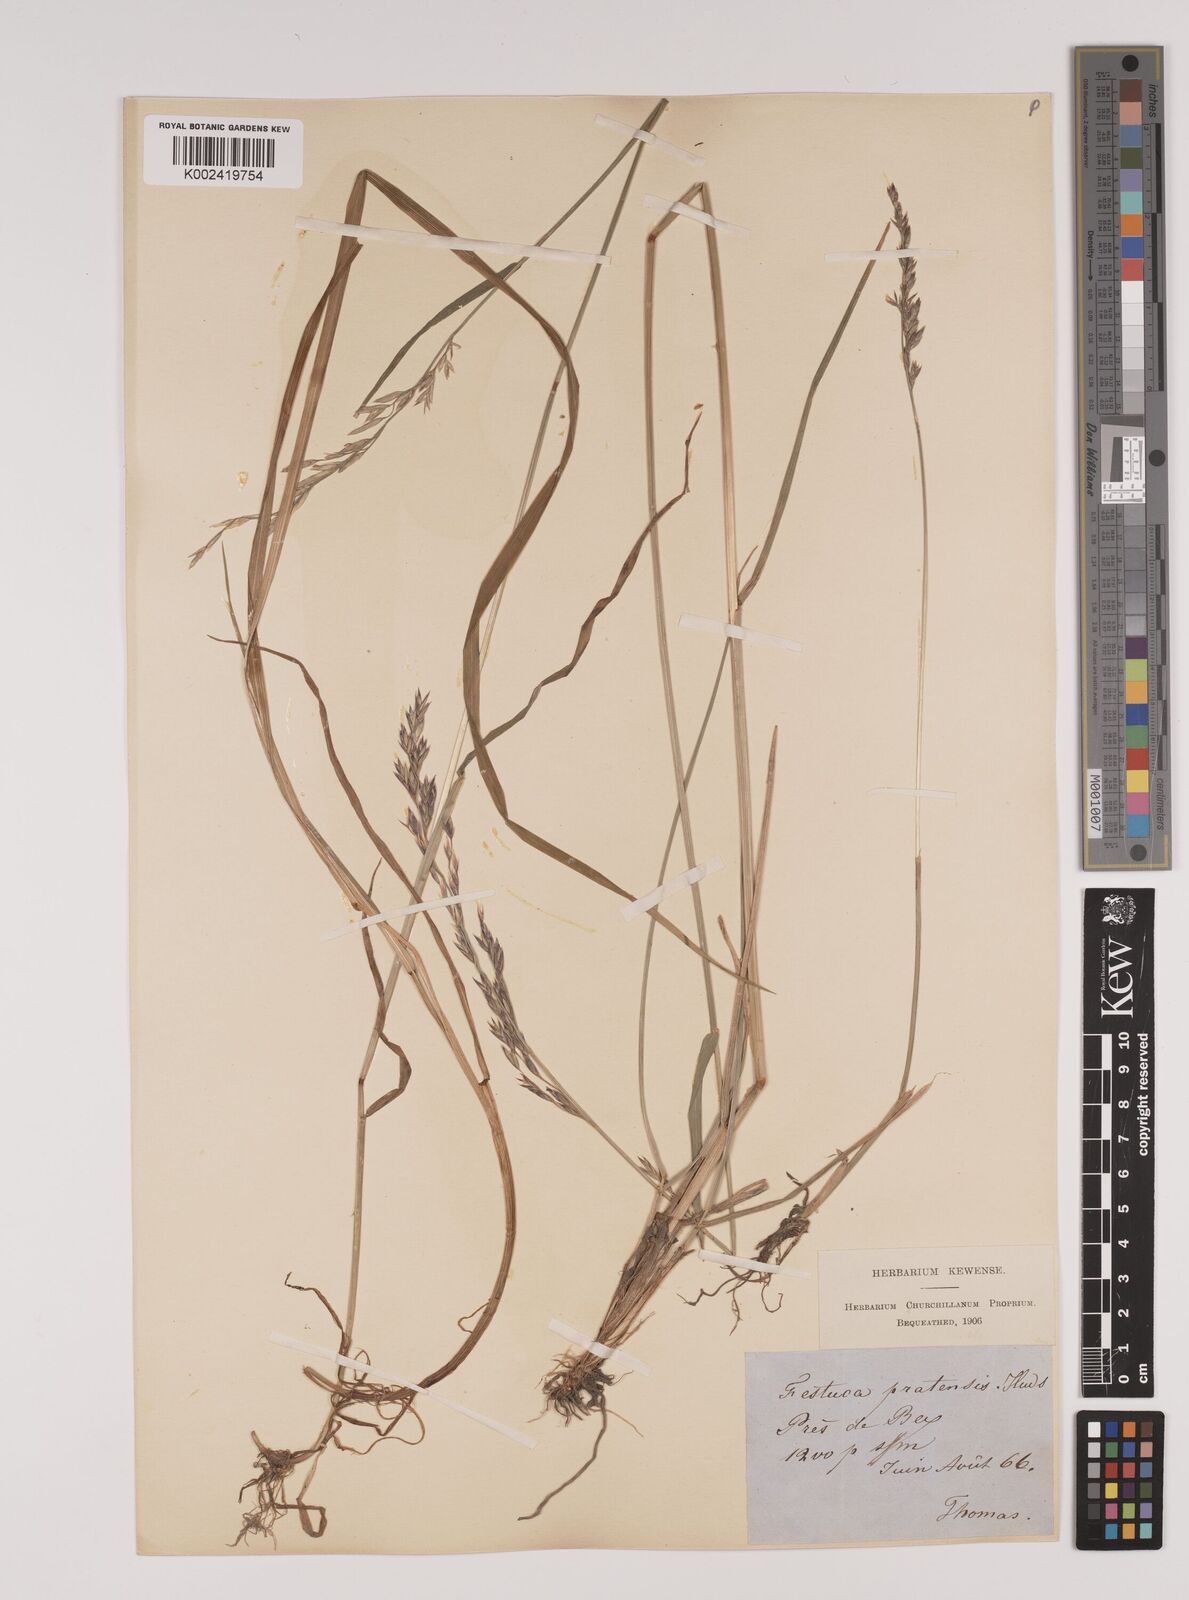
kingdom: Plantae
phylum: Tracheophyta
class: Liliopsida
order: Poales
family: Poaceae
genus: Lolium
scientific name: Lolium pratense
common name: Dover grass
